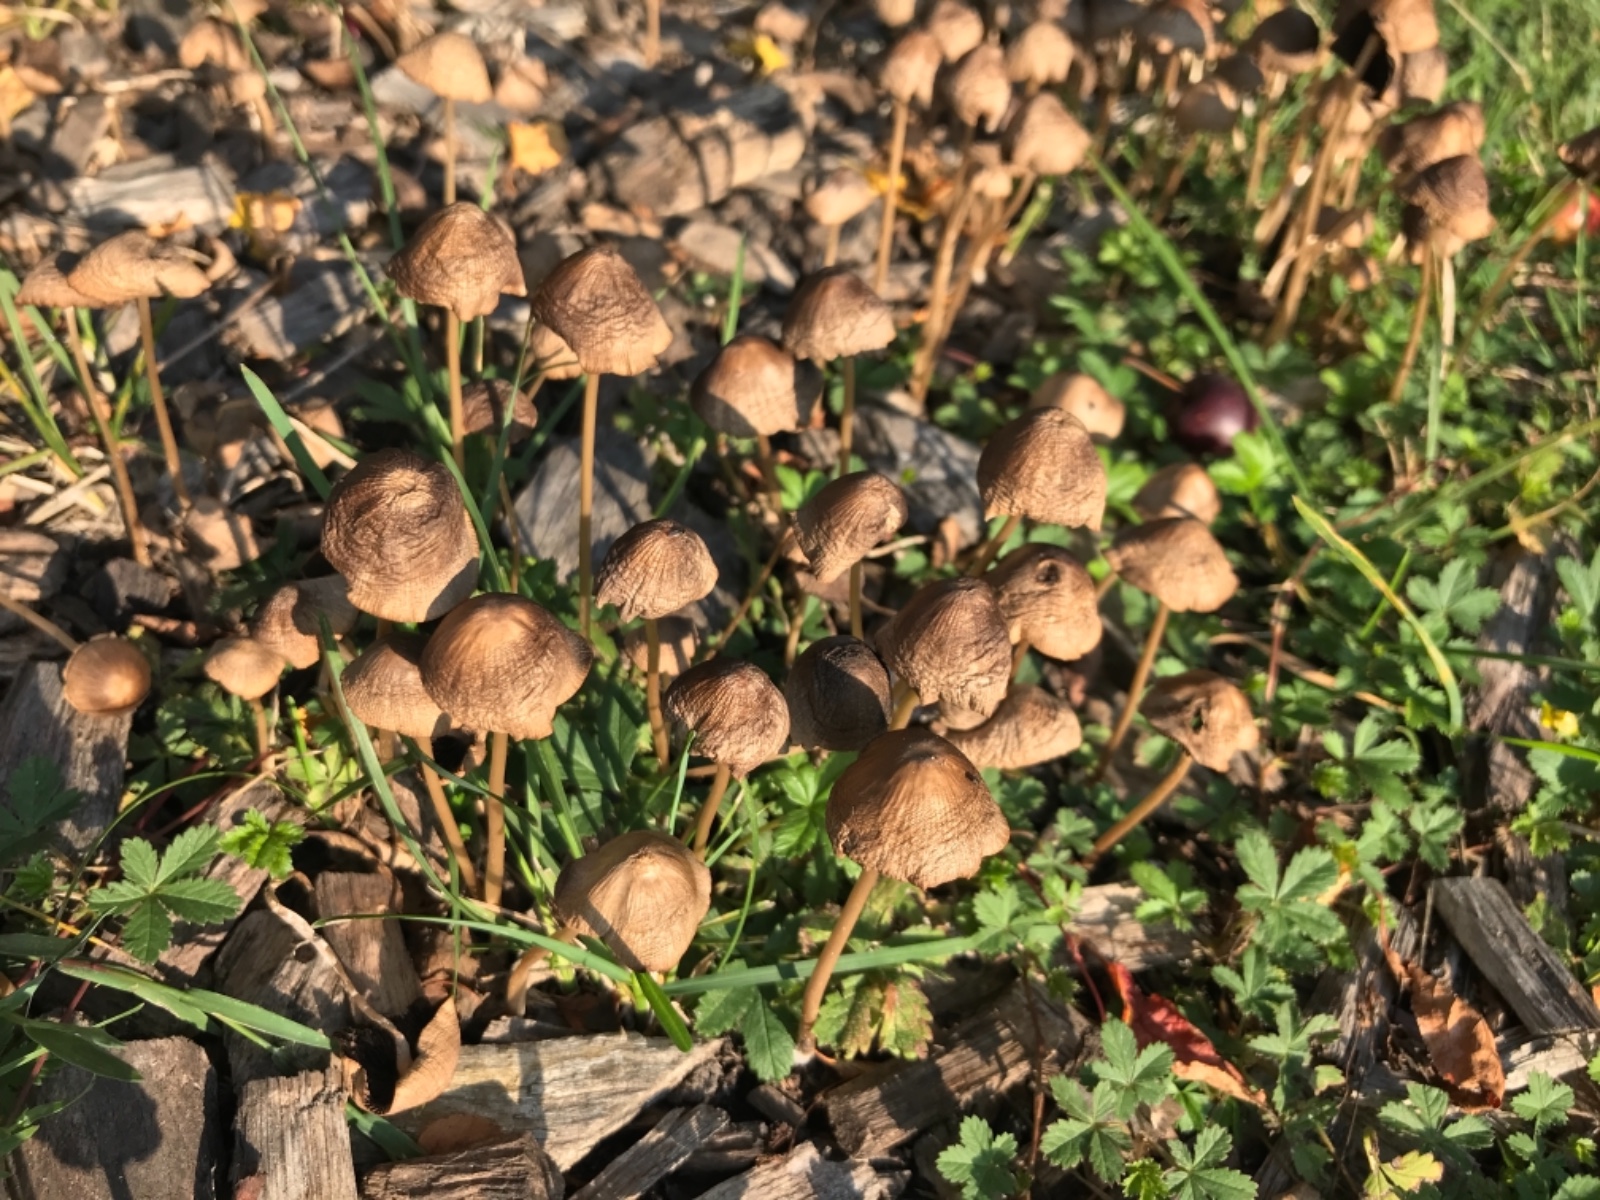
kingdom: Fungi
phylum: Basidiomycota
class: Agaricomycetes
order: Agaricales
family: Psathyrellaceae
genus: Parasola
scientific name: Parasola conopilea
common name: kegle-hjulhat
